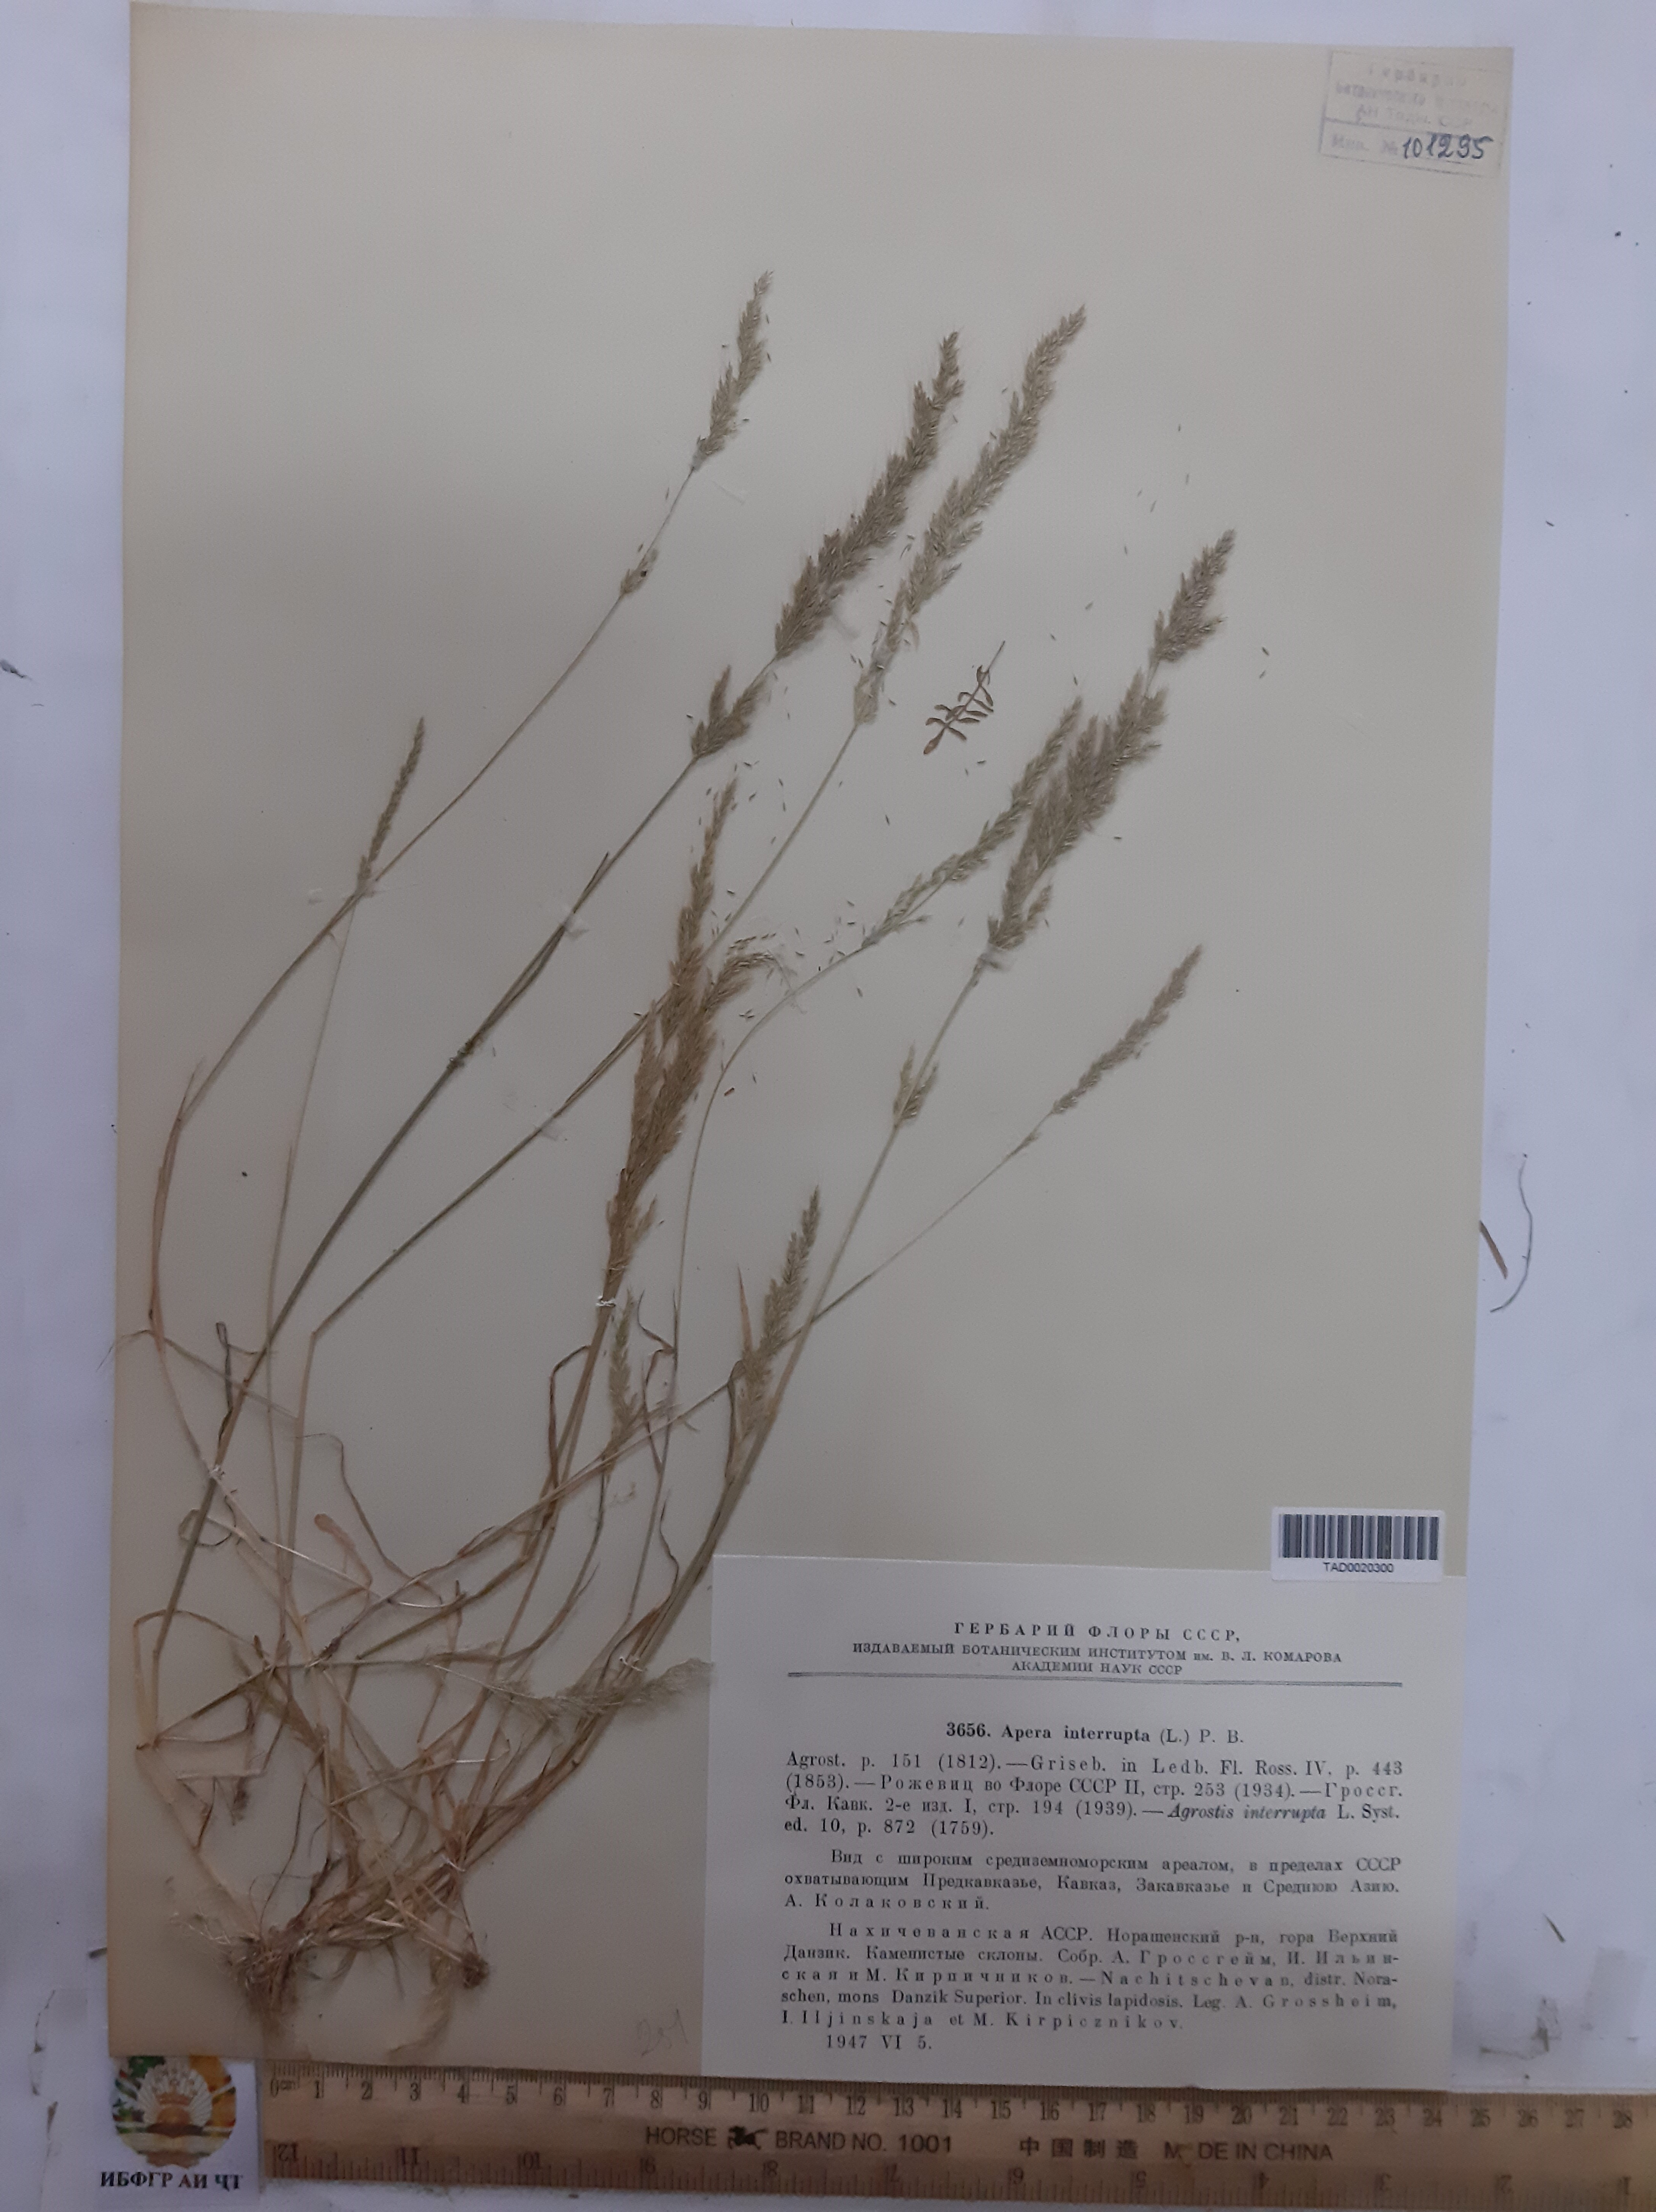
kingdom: Plantae
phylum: Tracheophyta
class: Liliopsida
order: Poales
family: Poaceae
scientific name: Poaceae
